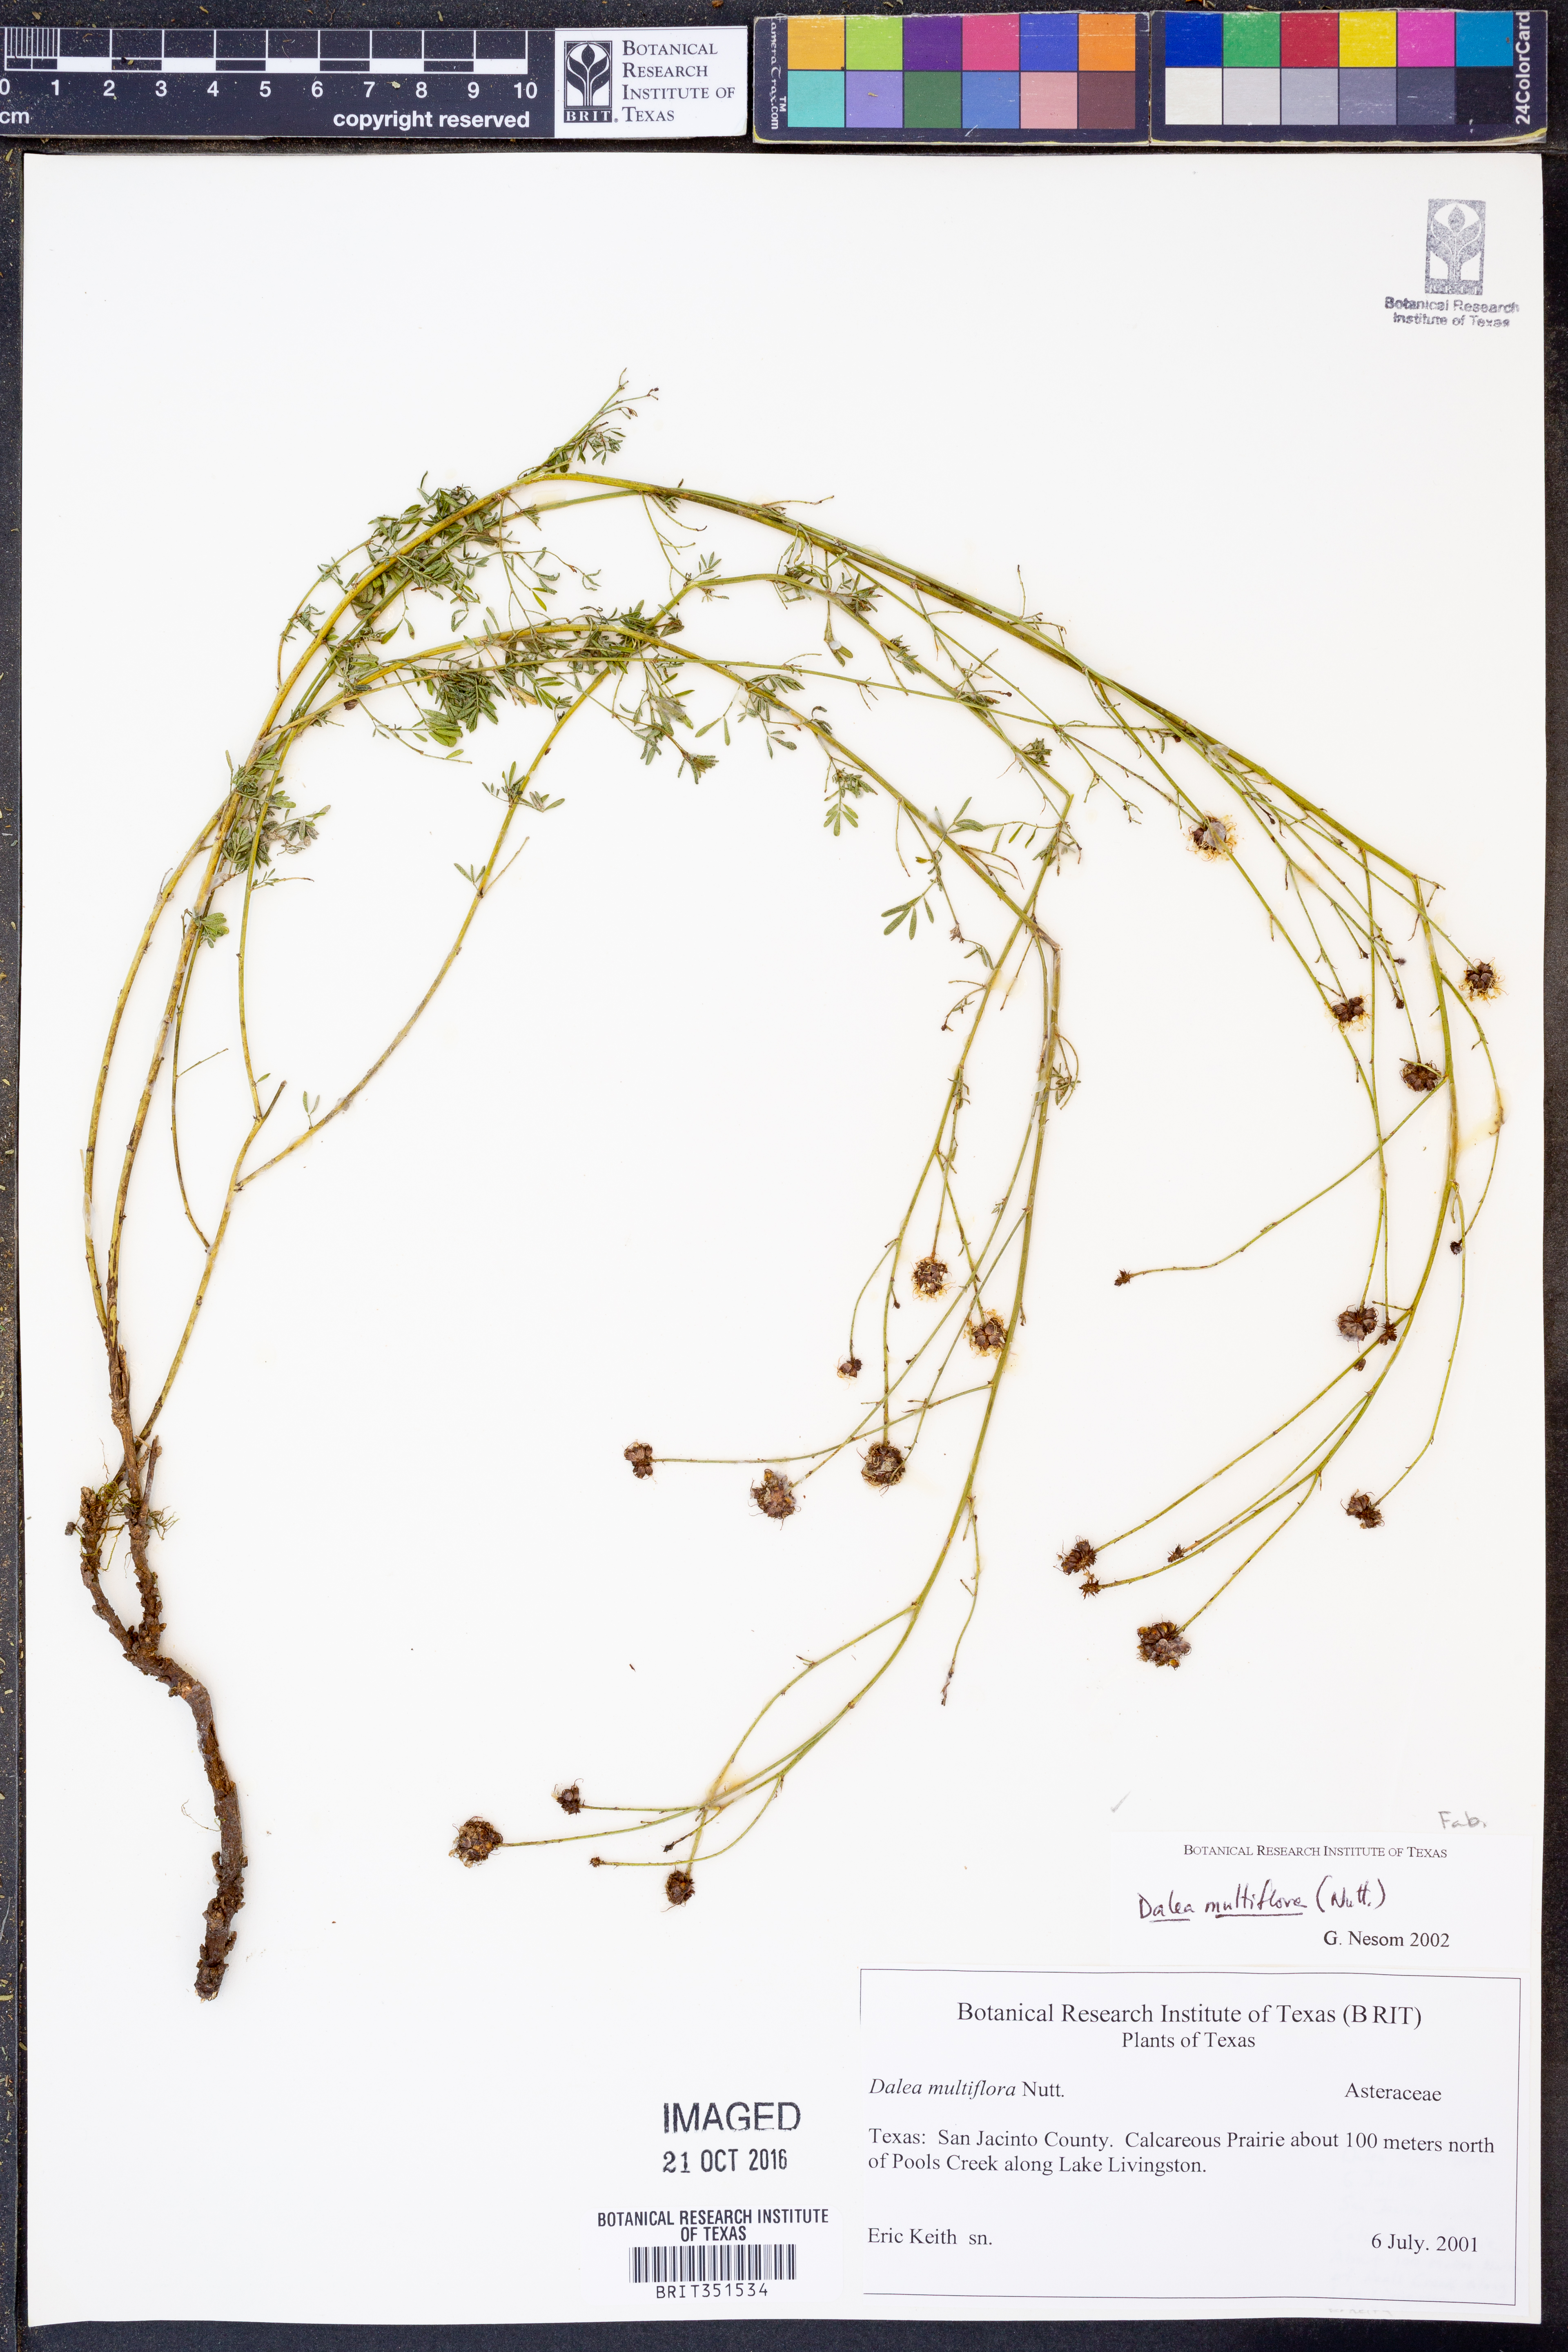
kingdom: Plantae
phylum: Tracheophyta
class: Magnoliopsida
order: Fabales
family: Fabaceae
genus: Dalea
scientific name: Dalea multiflora
